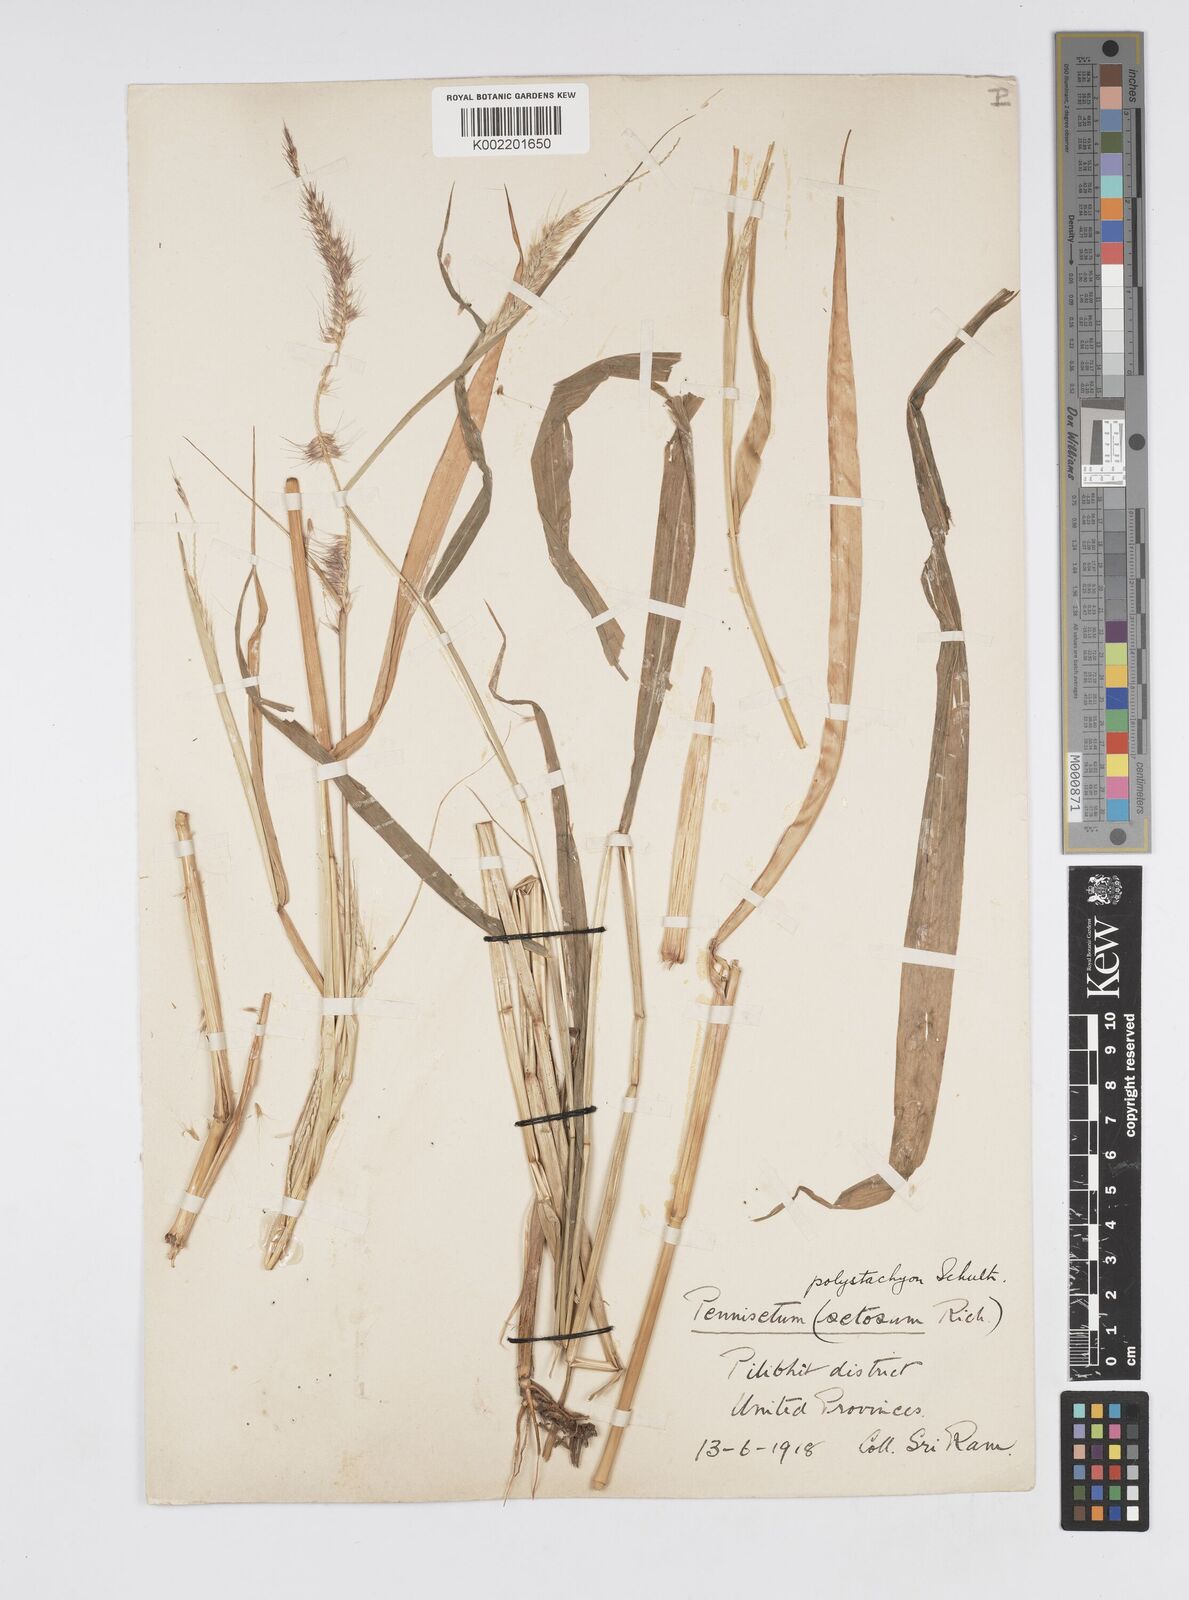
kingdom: Plantae
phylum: Tracheophyta
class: Liliopsida
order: Poales
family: Poaceae
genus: Setaria
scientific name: Setaria parviflora
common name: Knotroot bristle-grass
